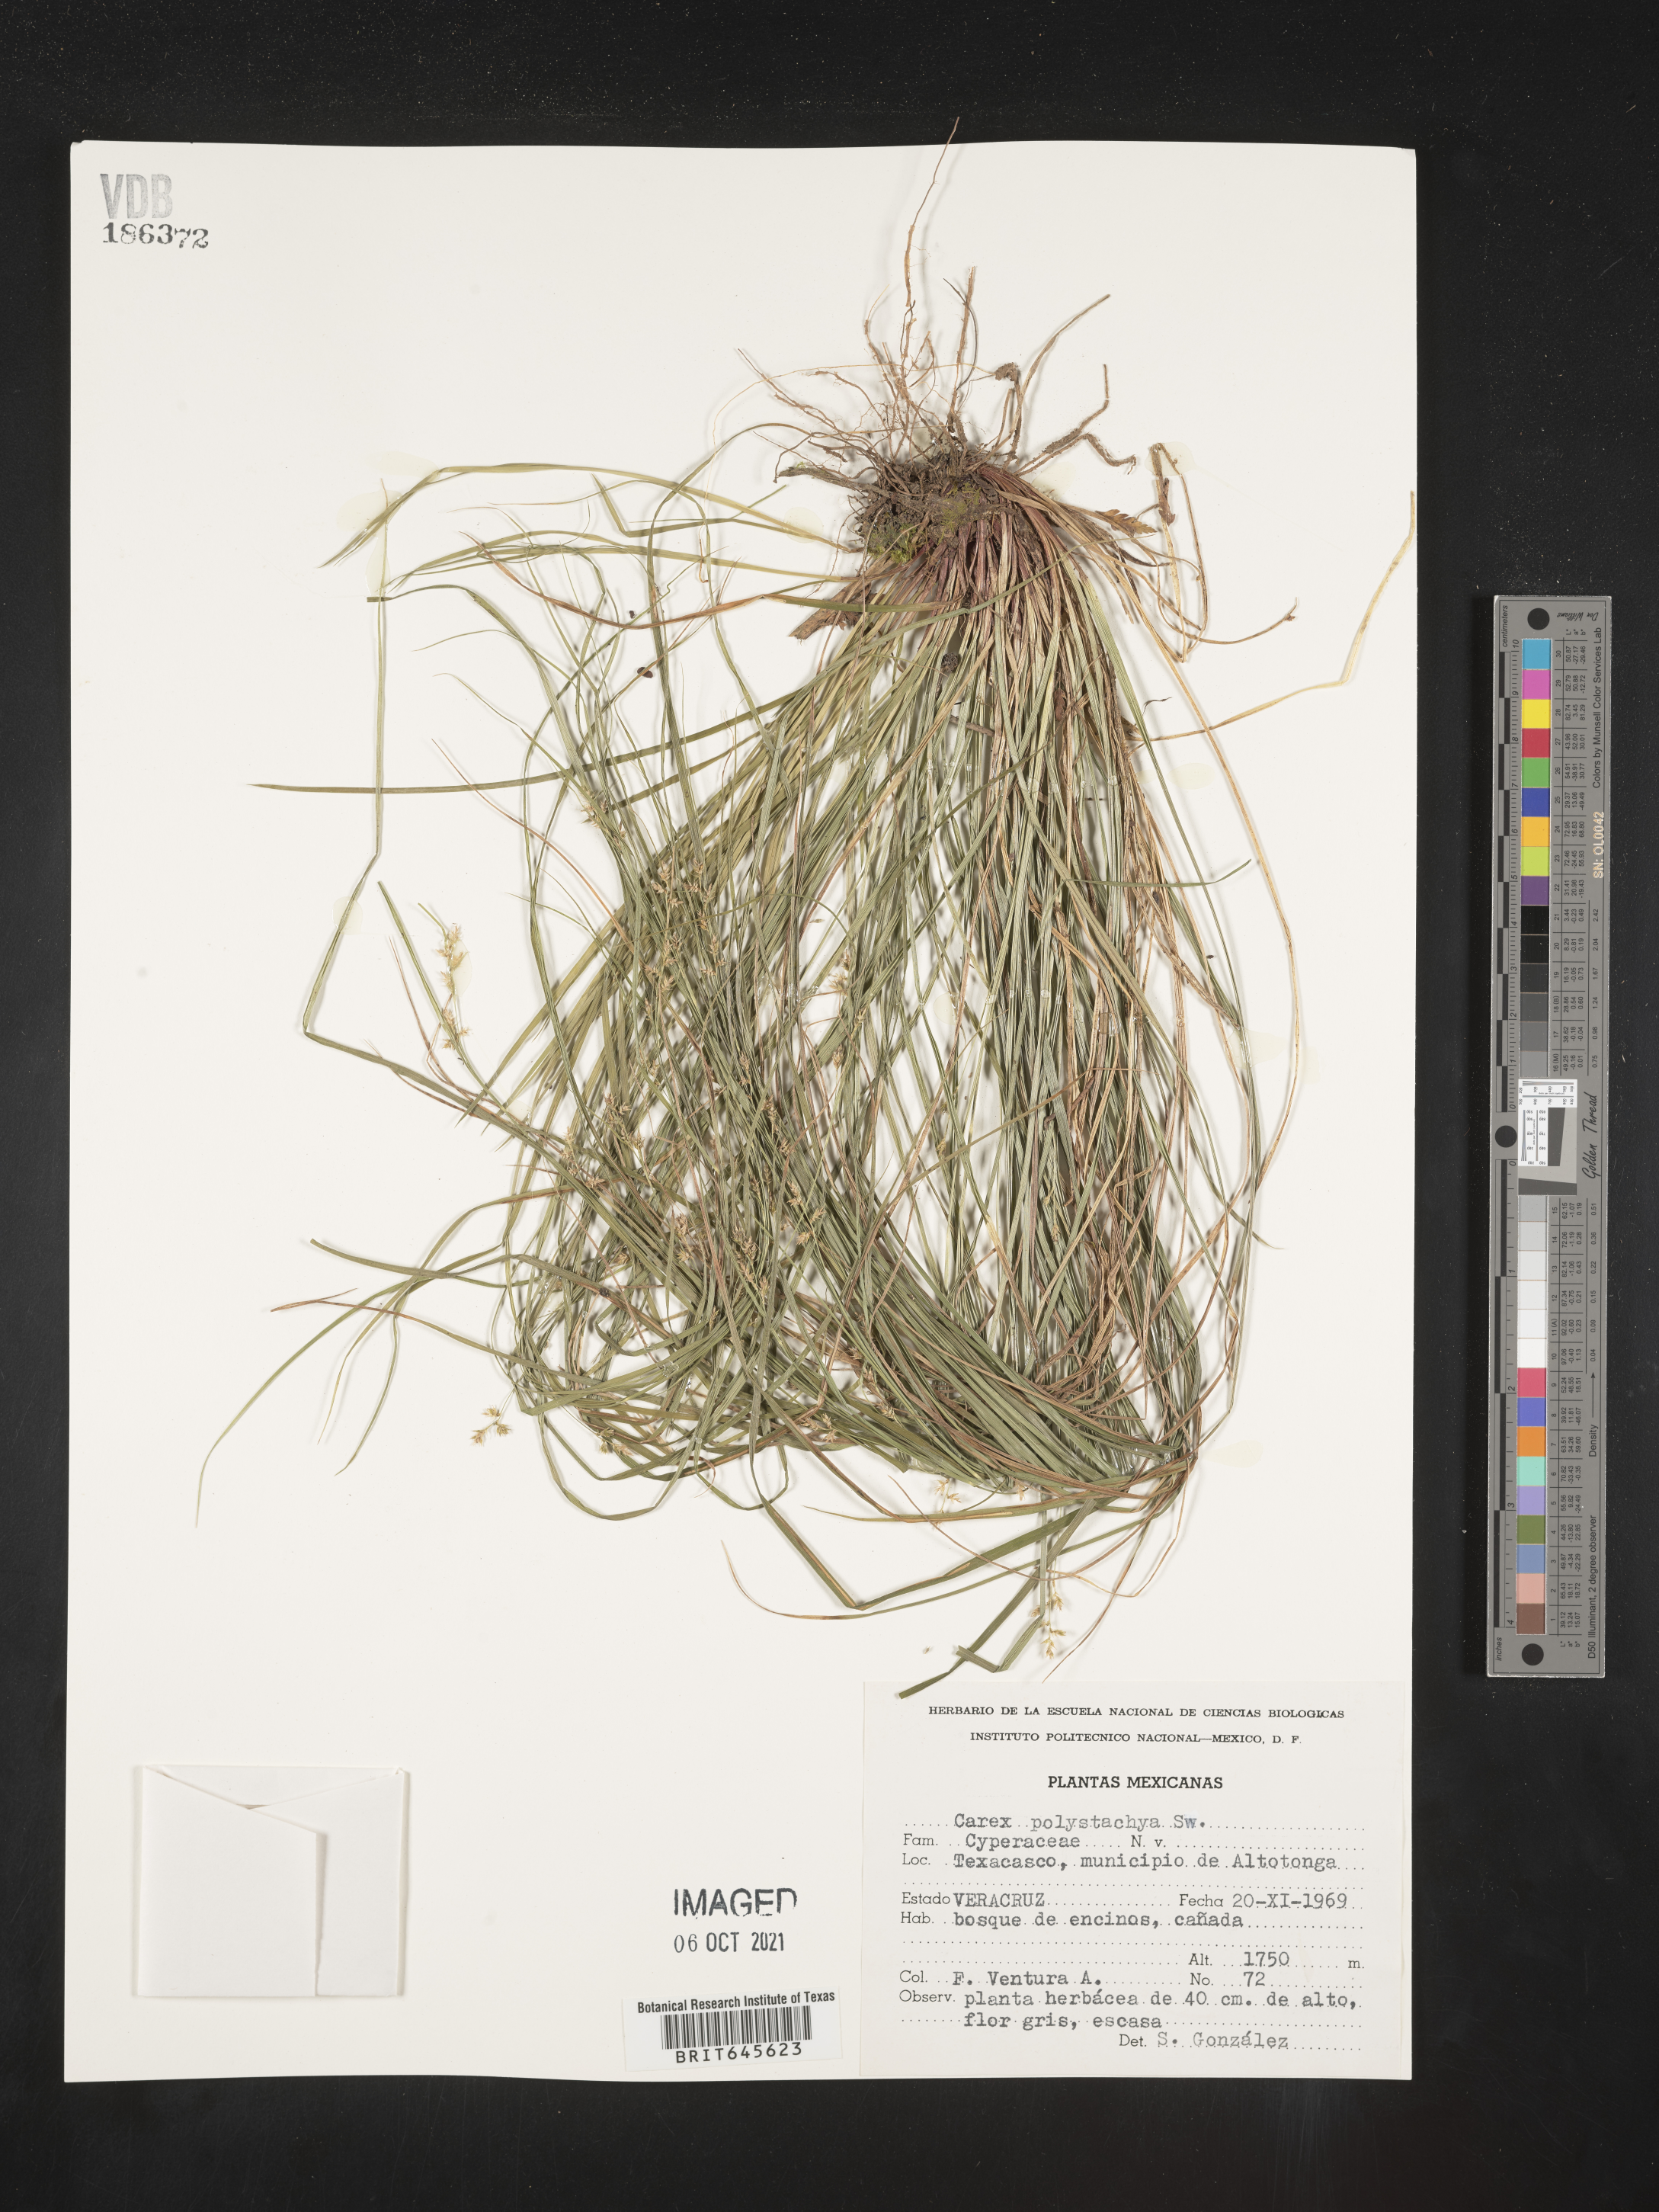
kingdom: Plantae
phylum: Tracheophyta
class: Liliopsida
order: Poales
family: Cyperaceae
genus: Carex
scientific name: Carex
